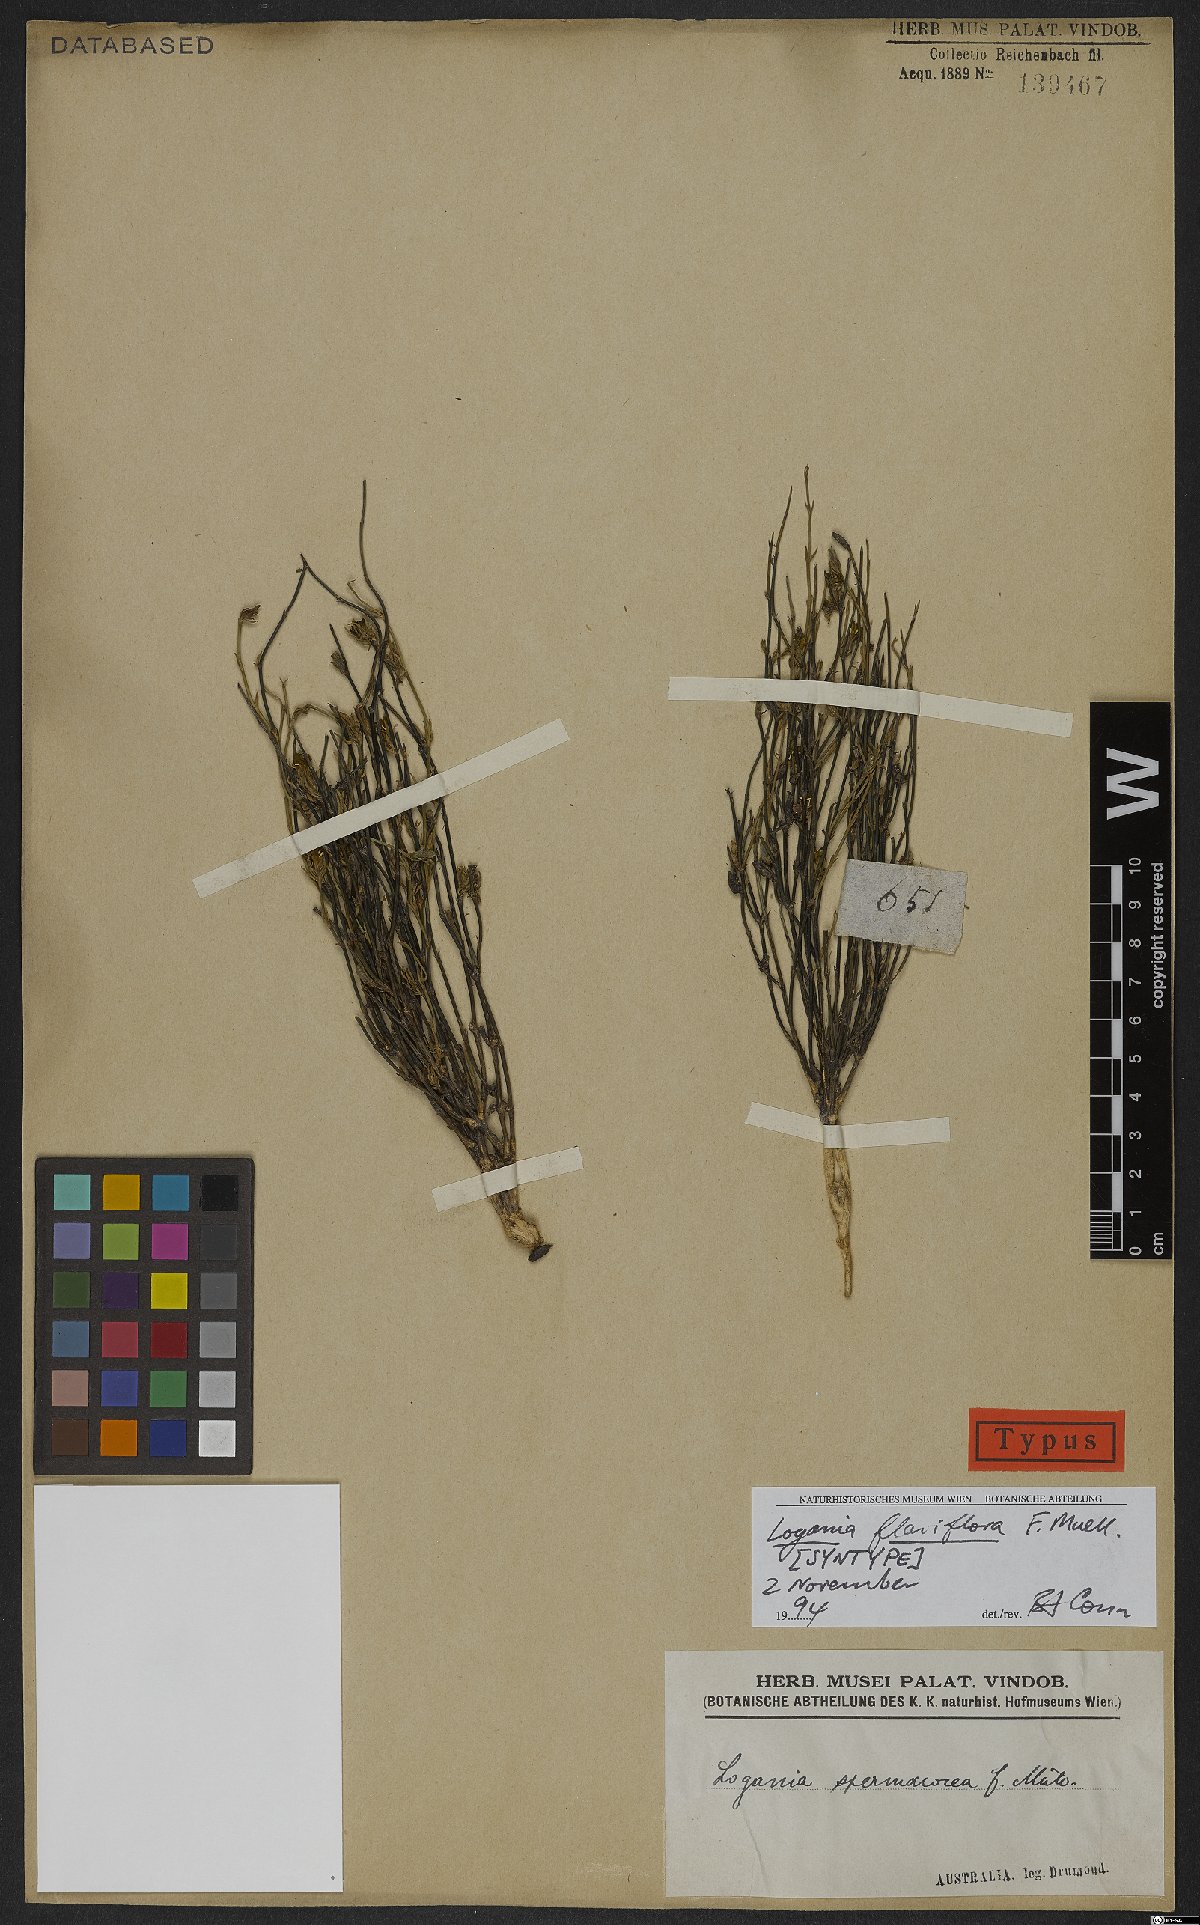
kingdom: Plantae
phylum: Tracheophyta
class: Magnoliopsida
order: Gentianales
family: Loganiaceae
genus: Orianthera
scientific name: Orianthera flaviflora
